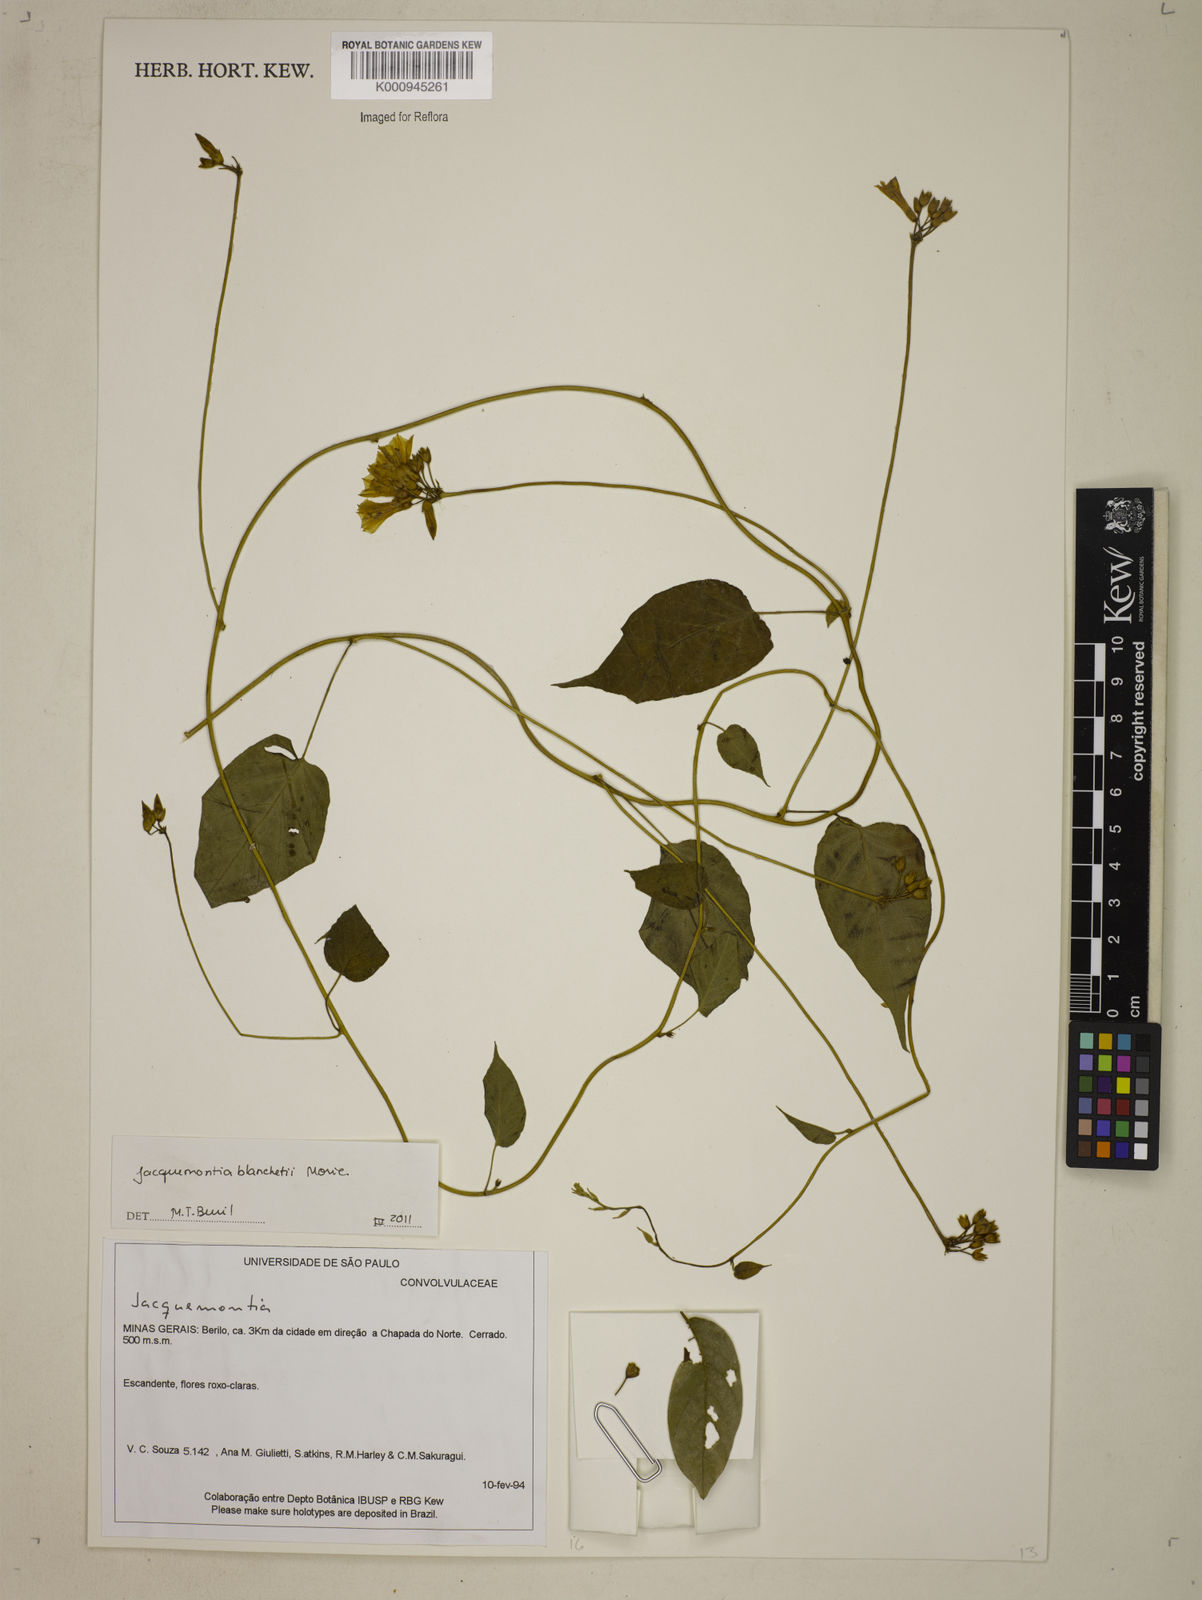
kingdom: Plantae
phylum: Tracheophyta
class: Magnoliopsida
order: Solanales
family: Convolvulaceae
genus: Jacquemontia
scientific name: Jacquemontia blanchetii
